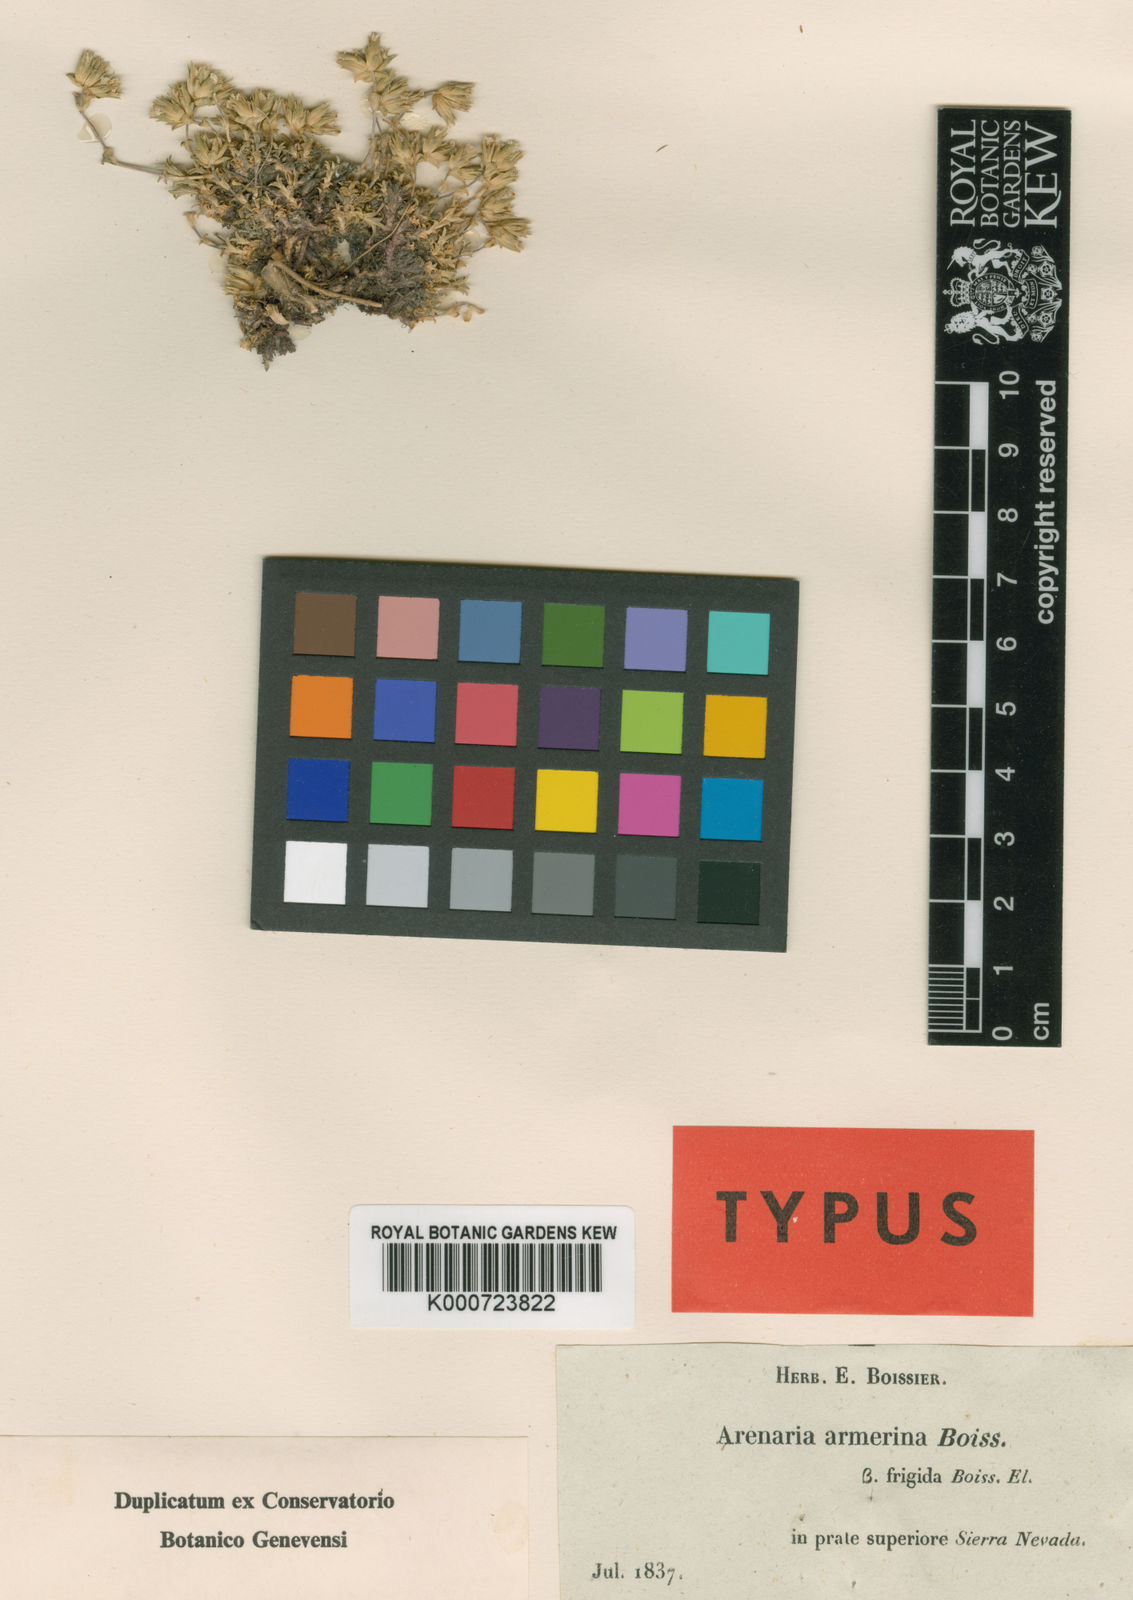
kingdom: Plantae
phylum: Tracheophyta
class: Magnoliopsida
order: Caryophyllales
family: Caryophyllaceae
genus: Arenaria
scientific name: Arenaria armerina
